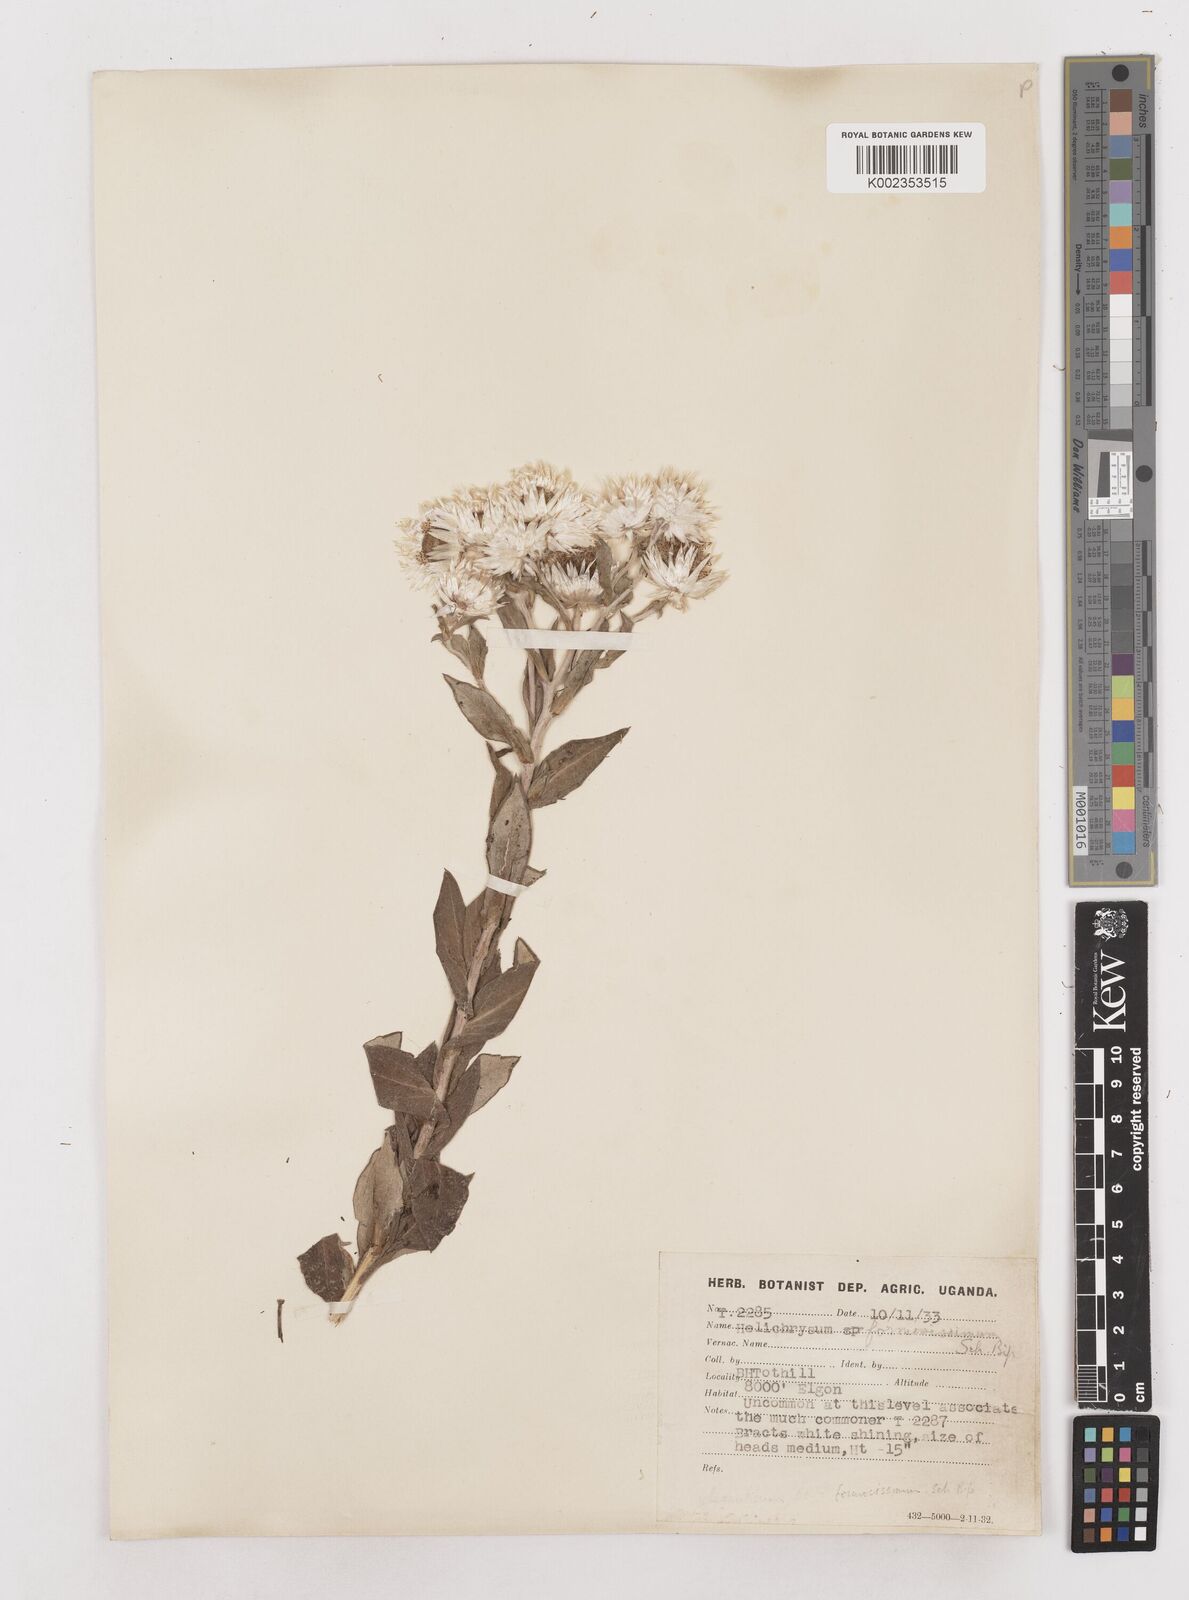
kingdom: Plantae
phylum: Tracheophyta
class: Magnoliopsida
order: Asterales
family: Asteraceae
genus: Helichrysum
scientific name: Helichrysum formosissimum
